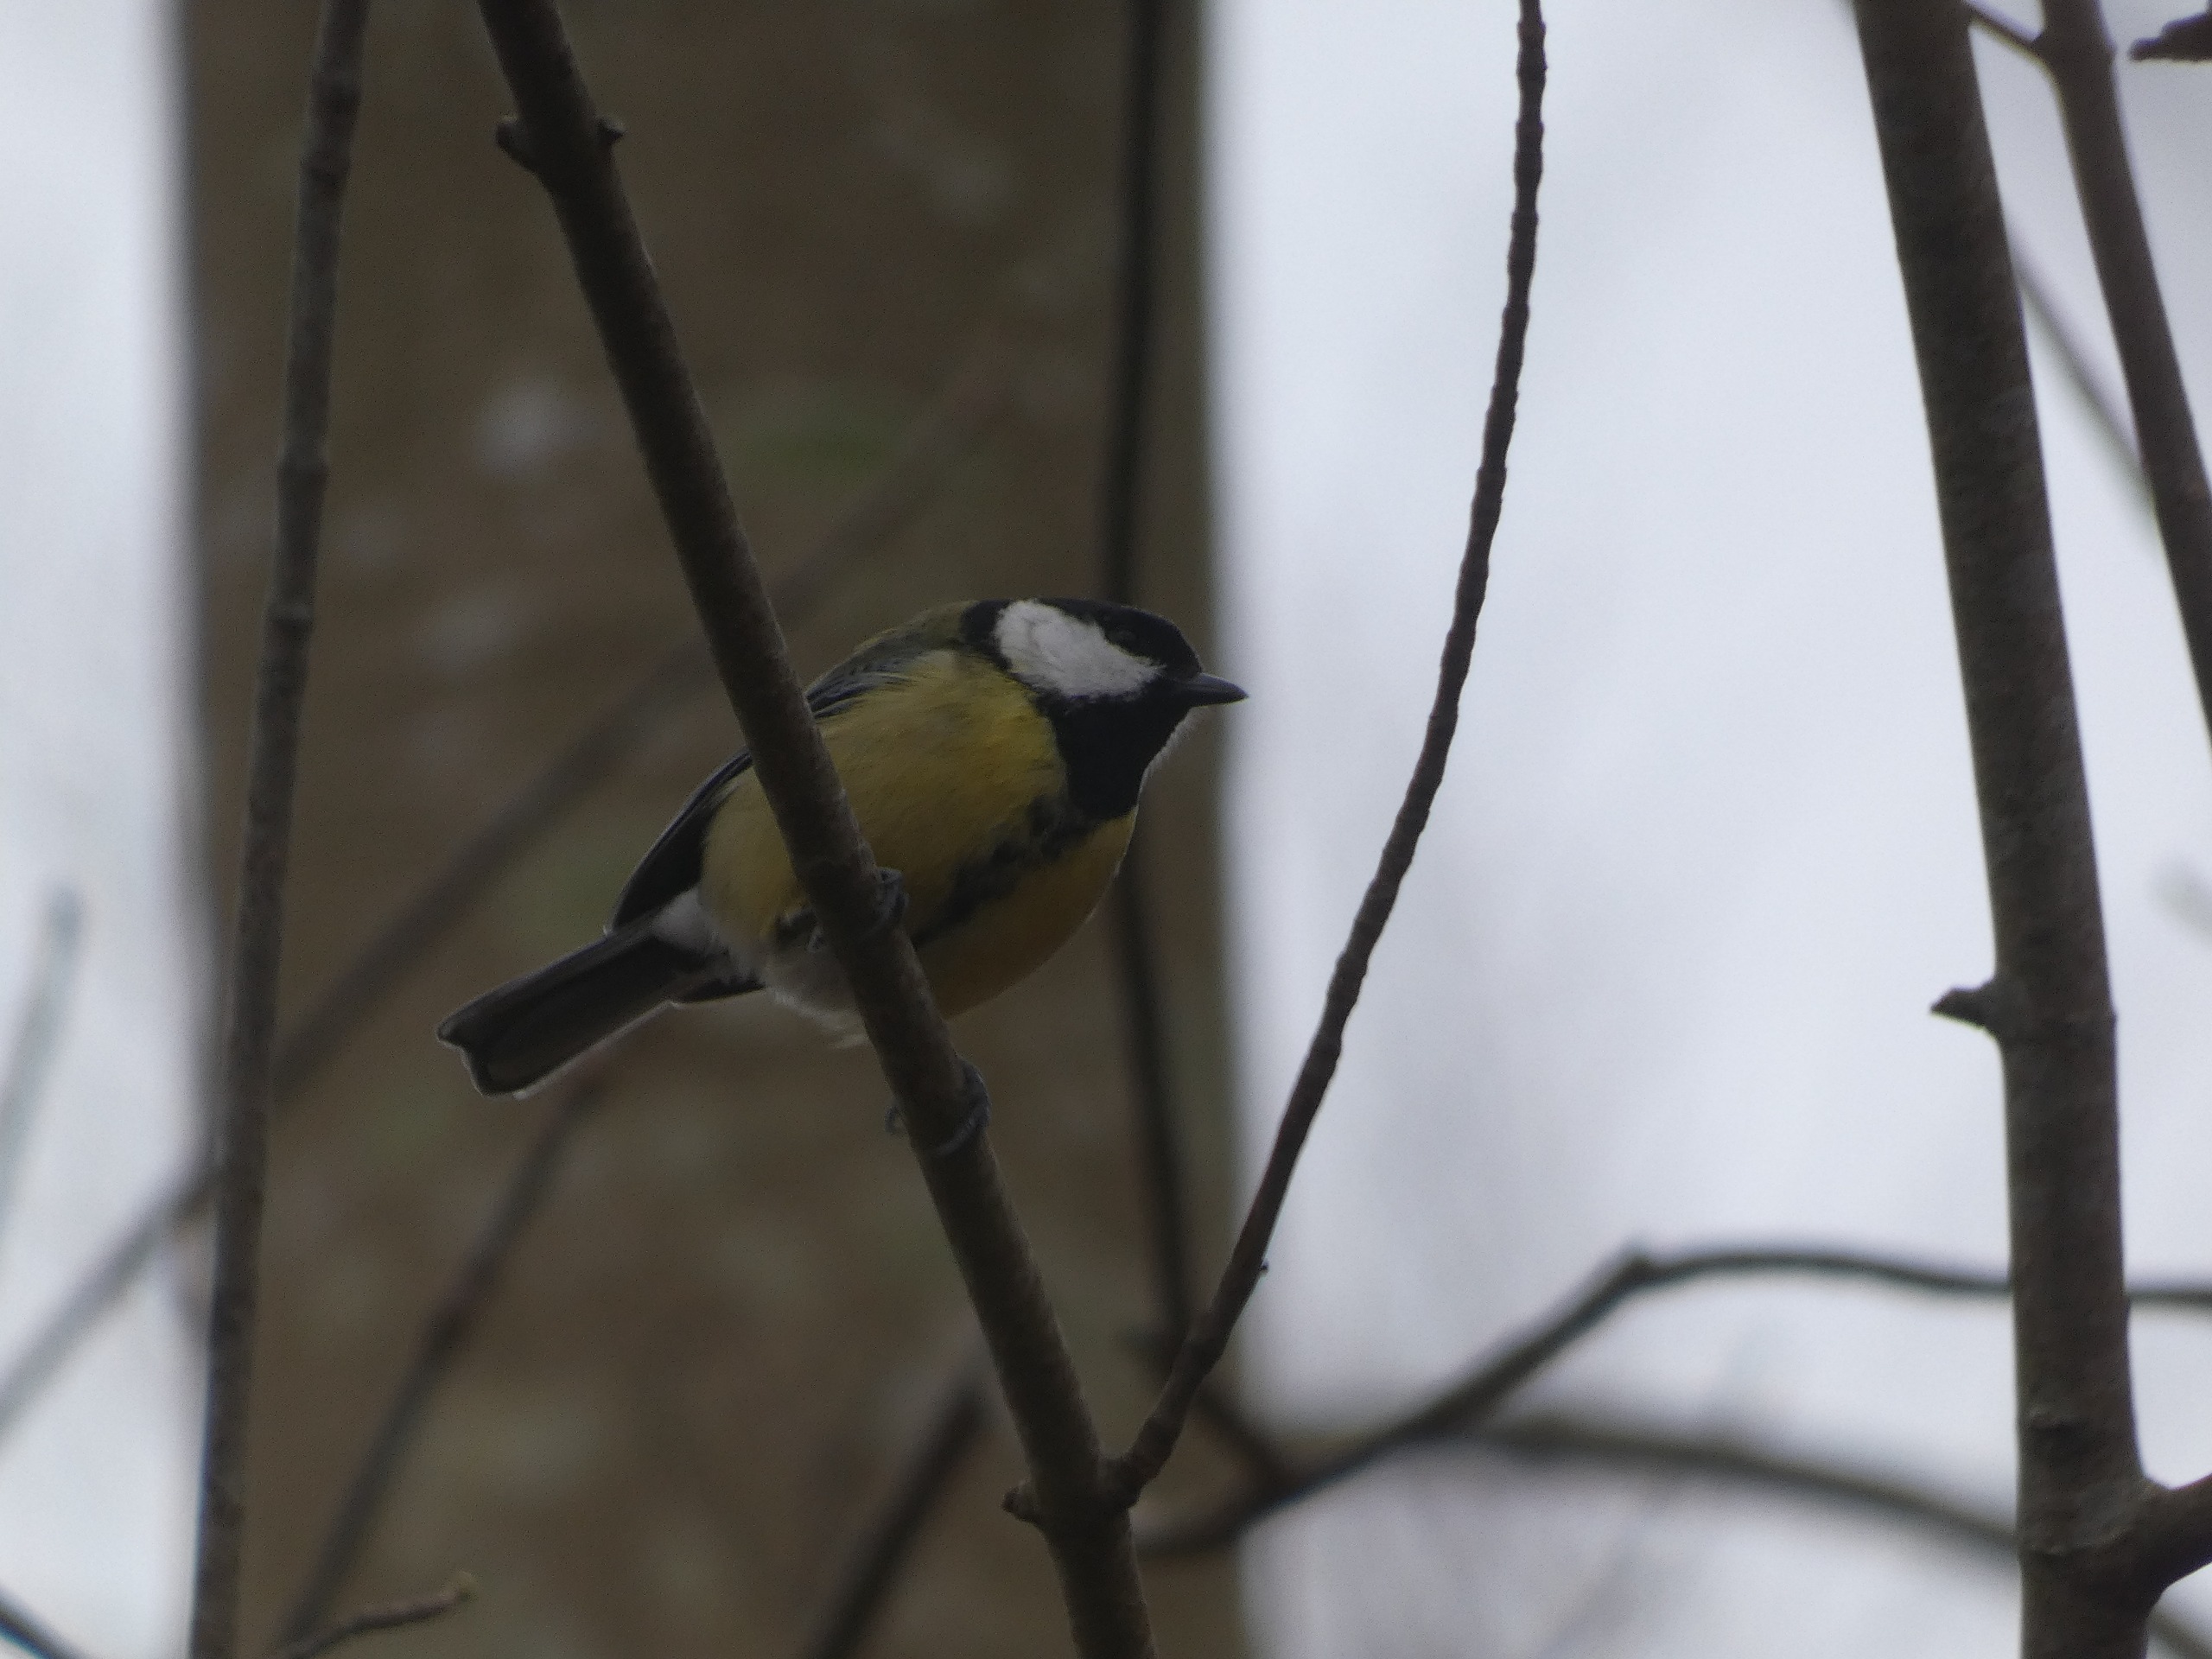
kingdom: Animalia
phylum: Chordata
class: Aves
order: Passeriformes
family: Paridae
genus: Parus
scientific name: Parus major
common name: Musvit
